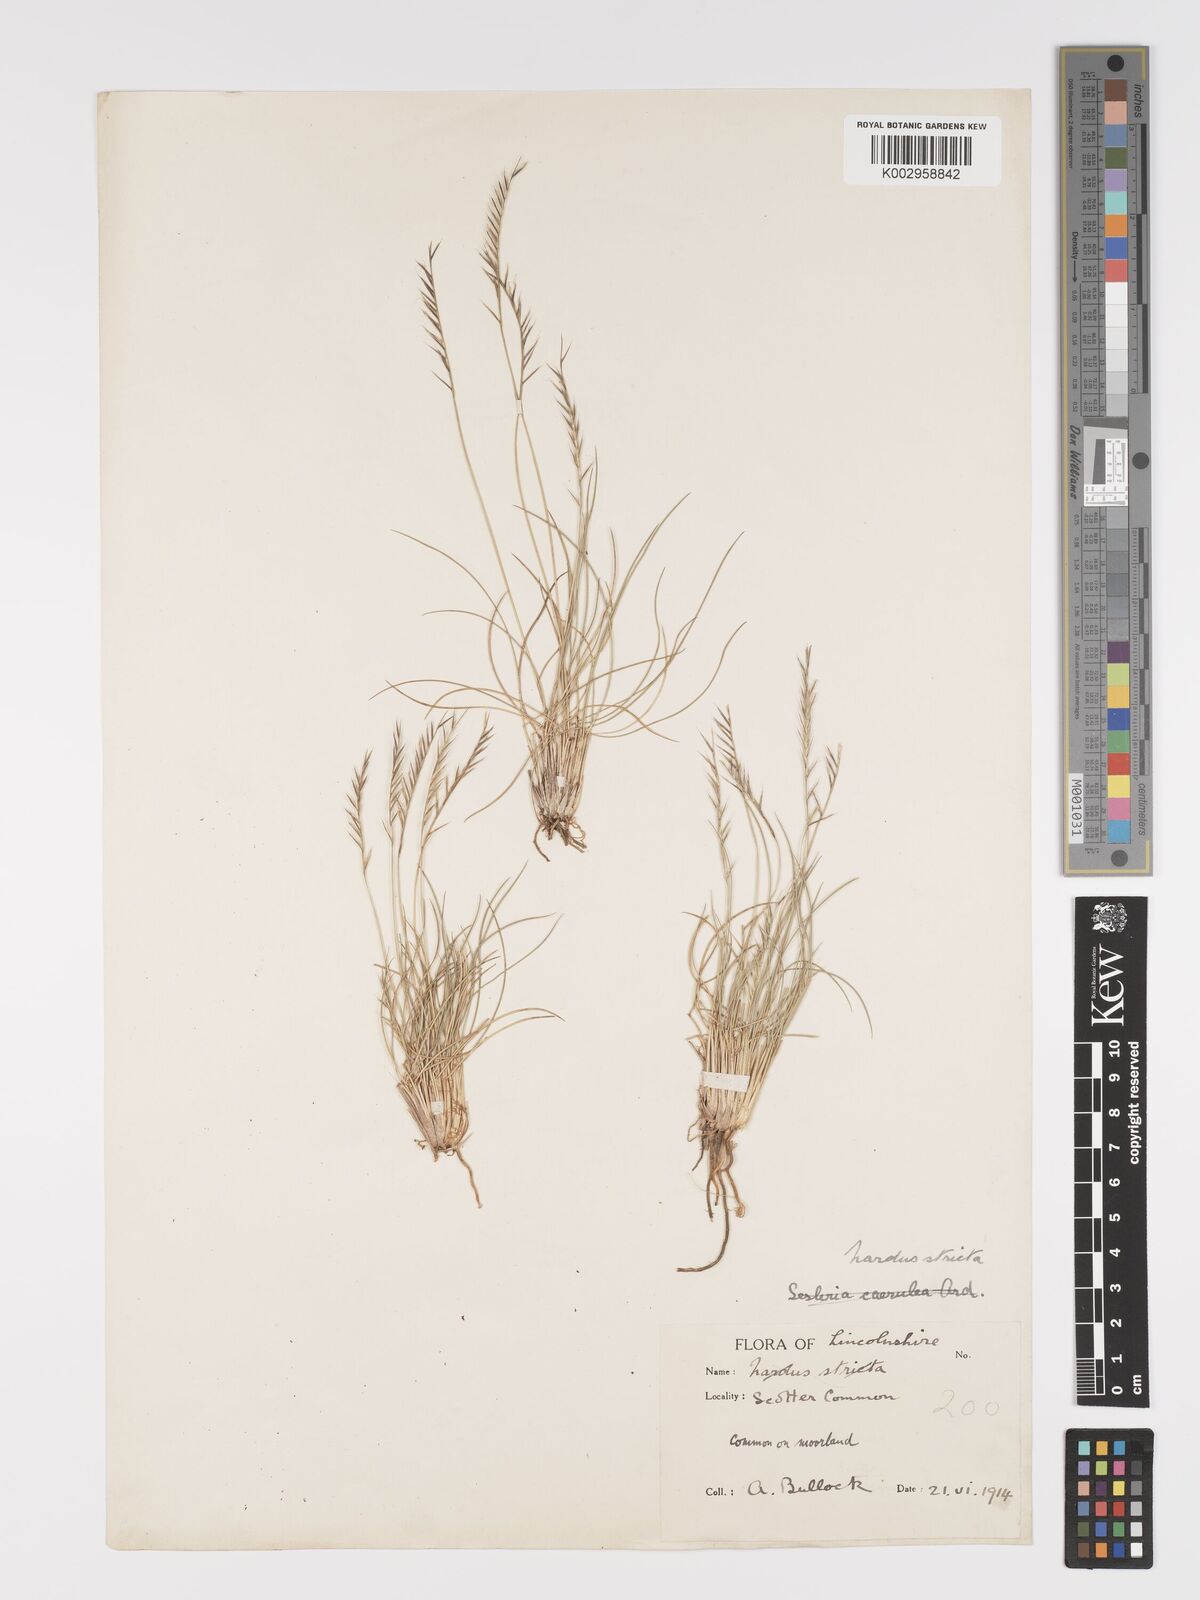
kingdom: Plantae
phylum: Tracheophyta
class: Liliopsida
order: Poales
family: Poaceae
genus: Nardus
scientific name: Nardus stricta
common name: Mat-grass
